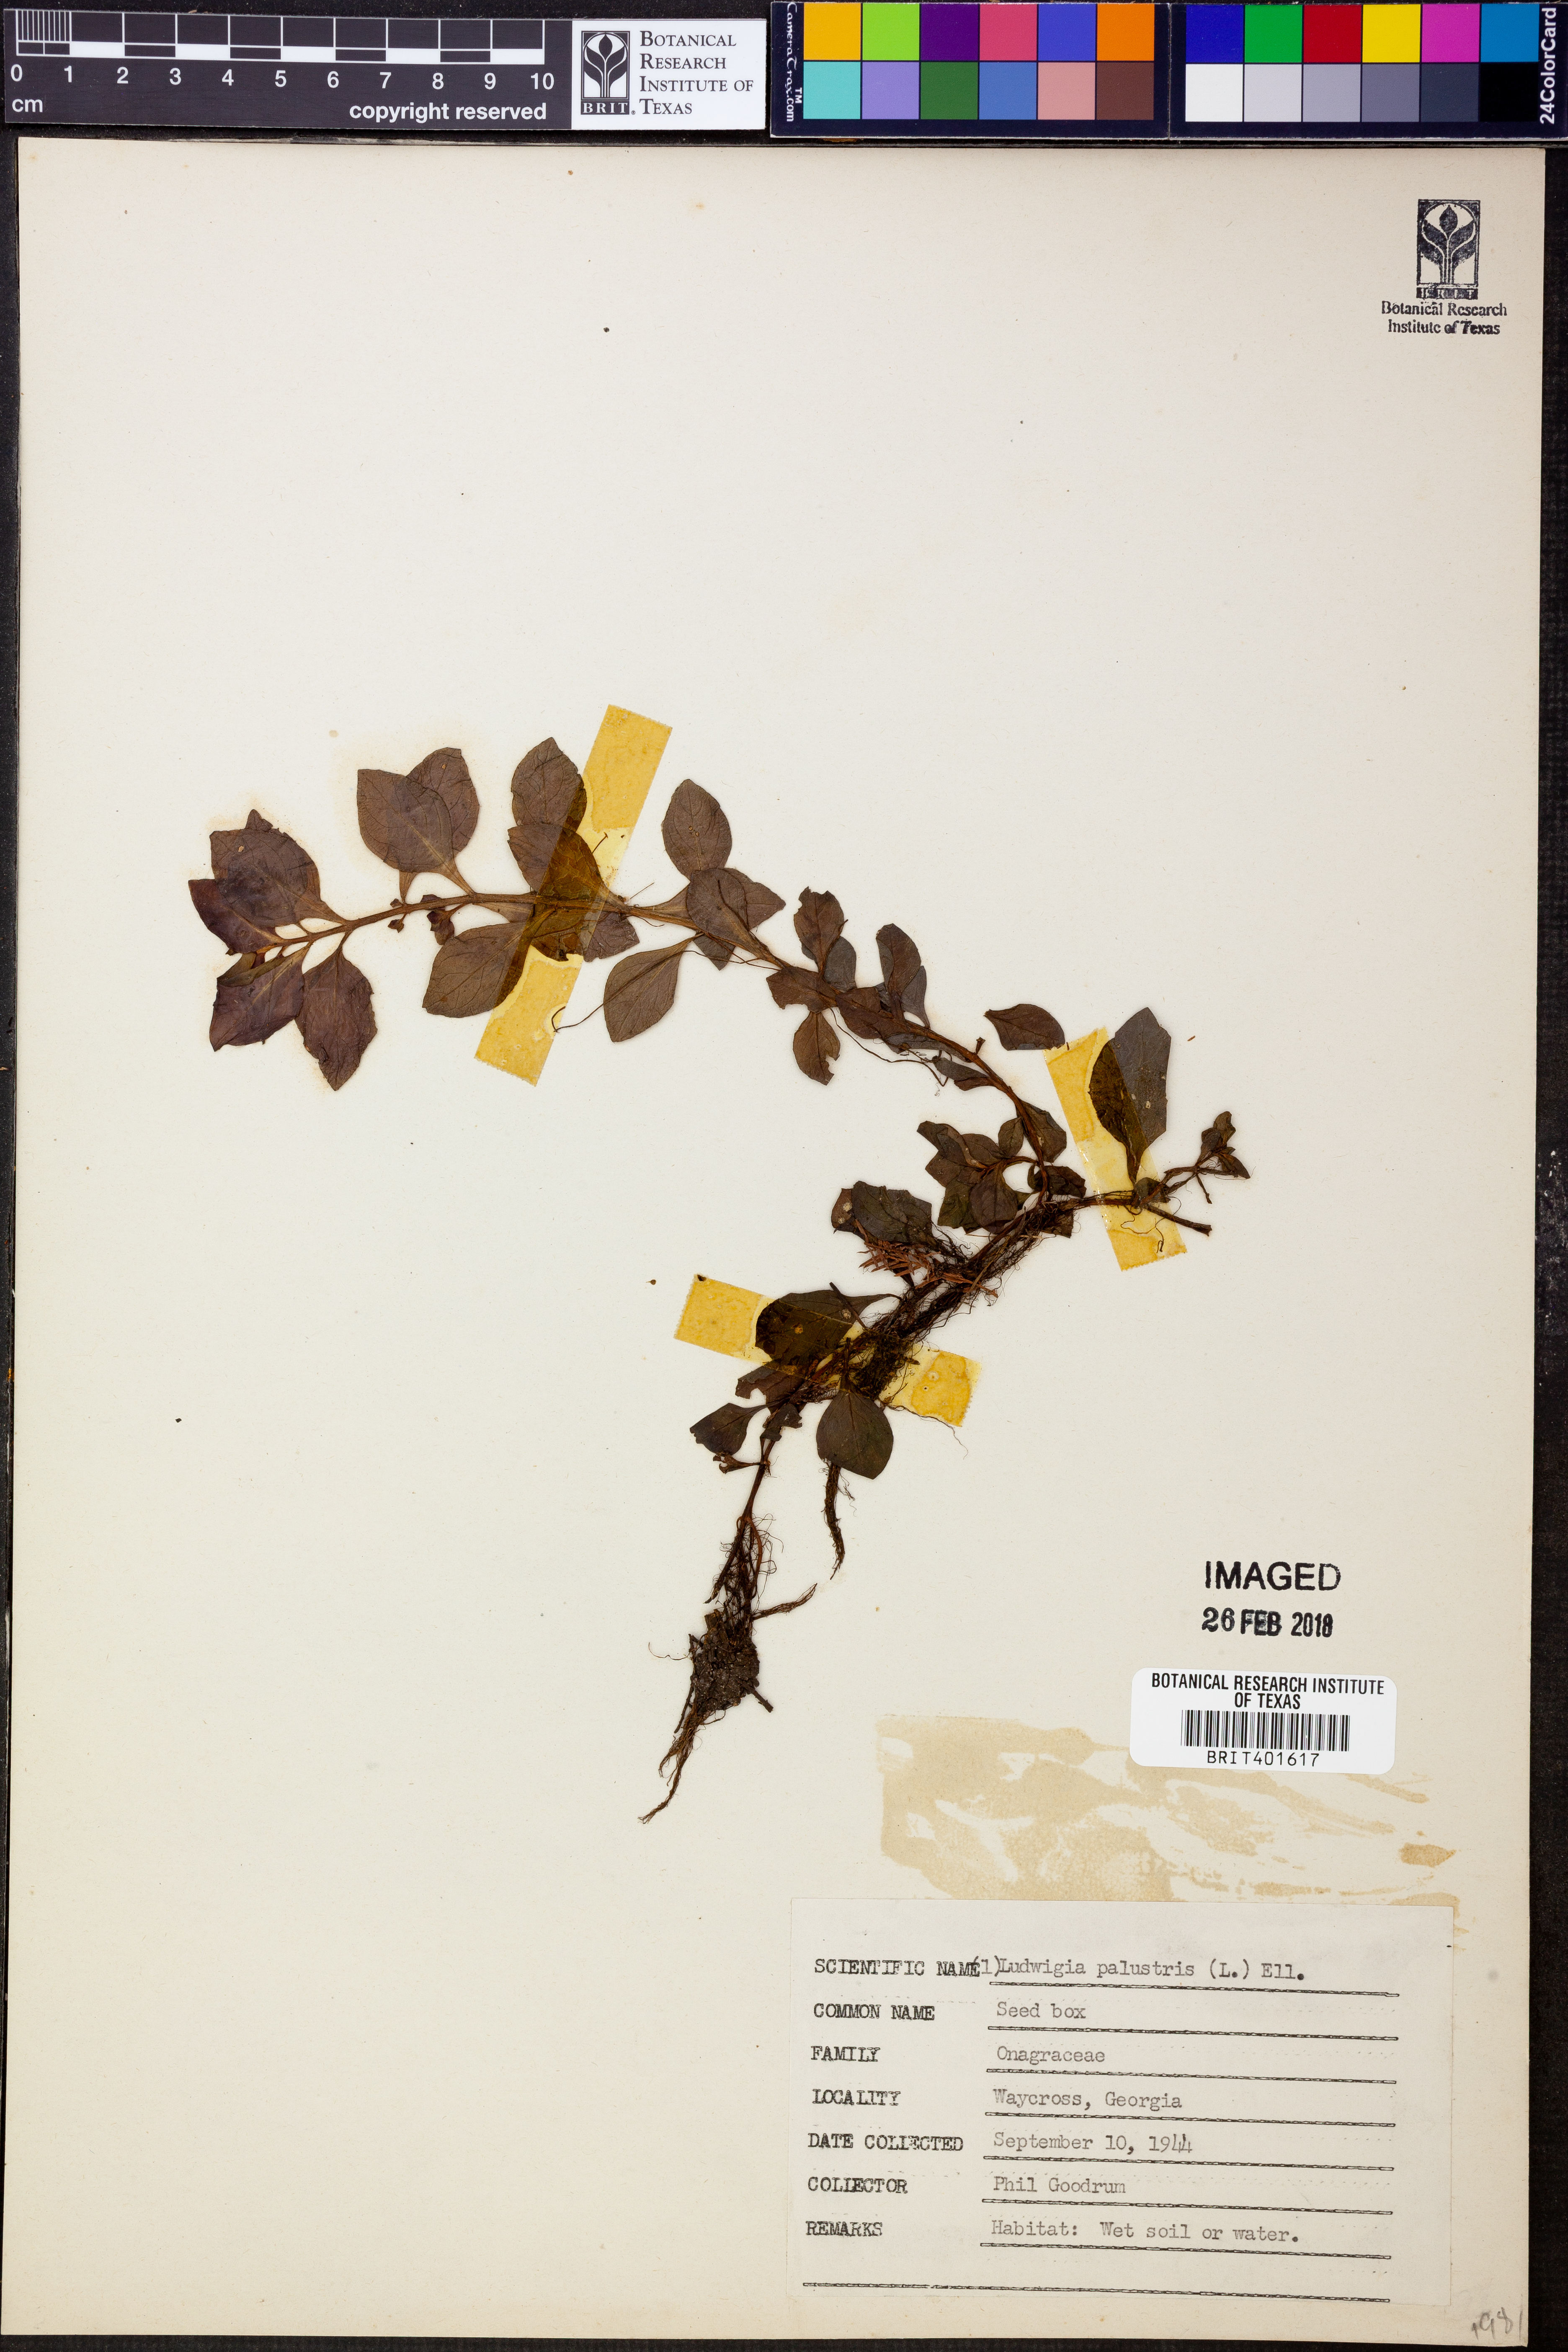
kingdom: Plantae
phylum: Tracheophyta
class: Magnoliopsida
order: Myrtales
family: Onagraceae
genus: Ludwigia
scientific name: Ludwigia palustris
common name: Hampshire-purslane
